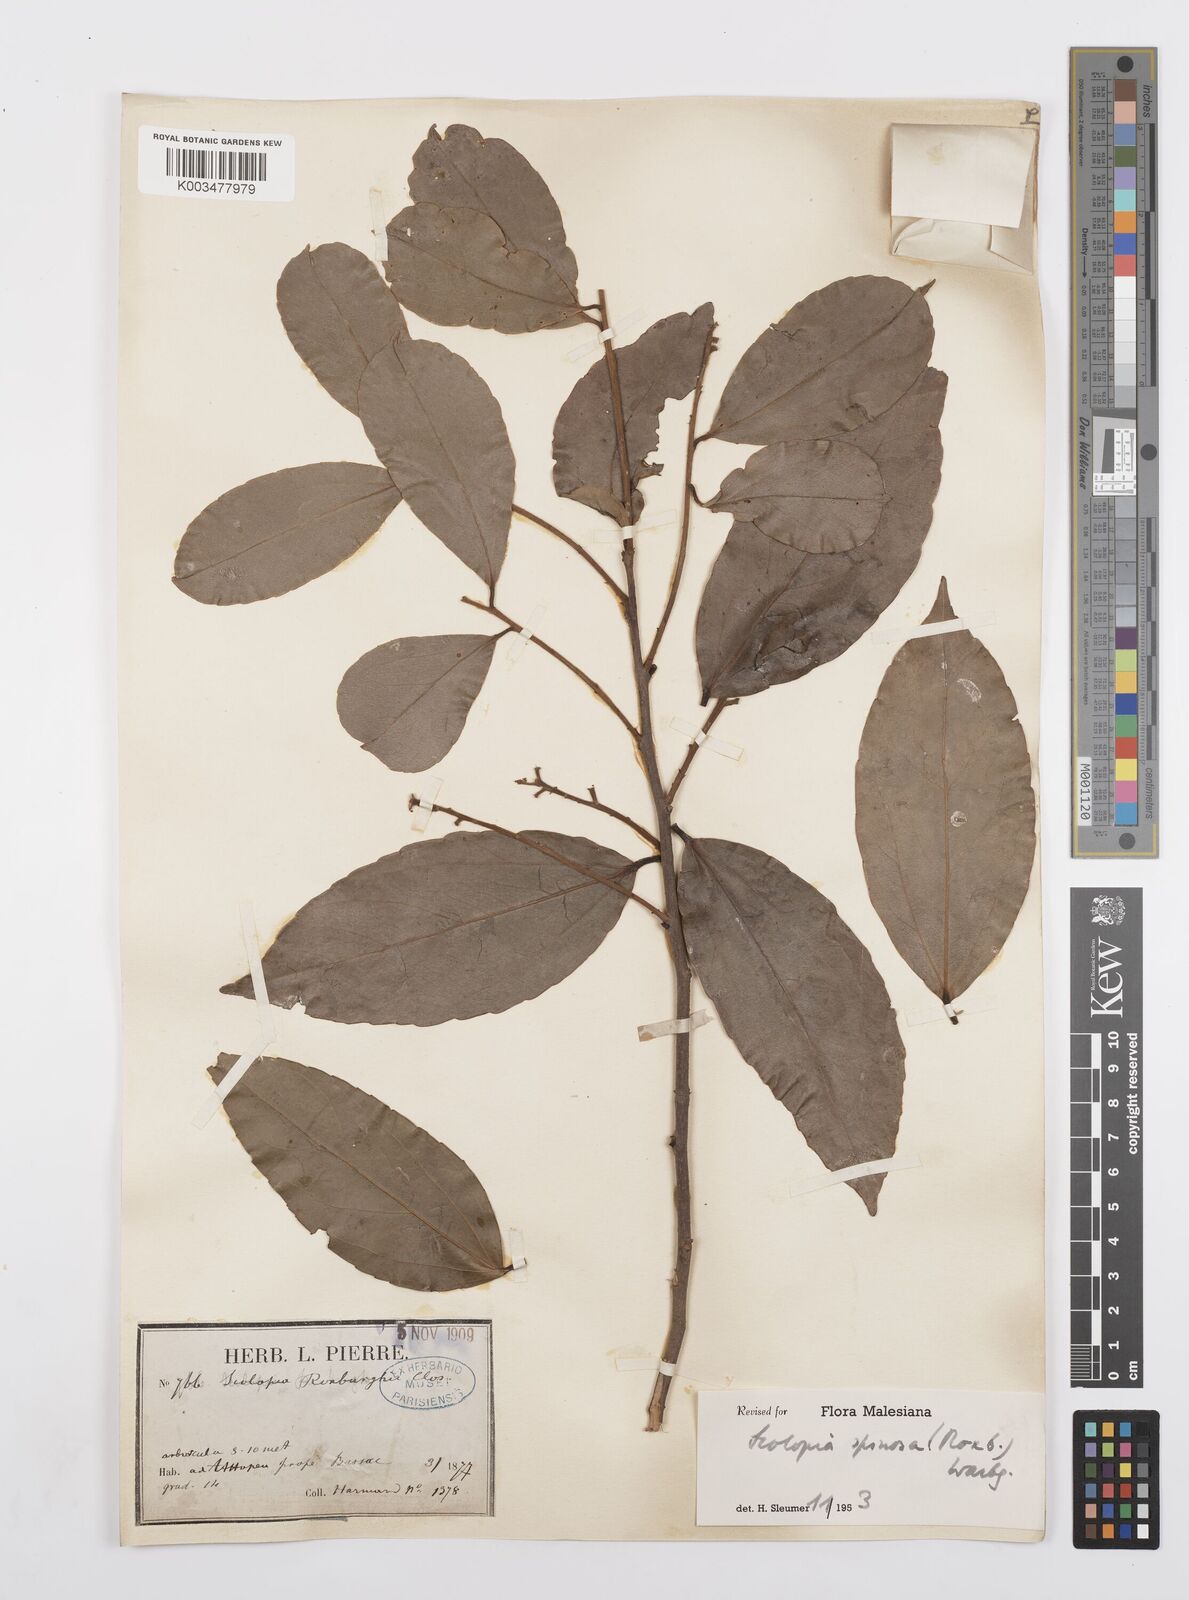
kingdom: Plantae
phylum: Tracheophyta
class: Magnoliopsida
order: Malpighiales
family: Salicaceae
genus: Scolopia
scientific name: Scolopia spinosa
